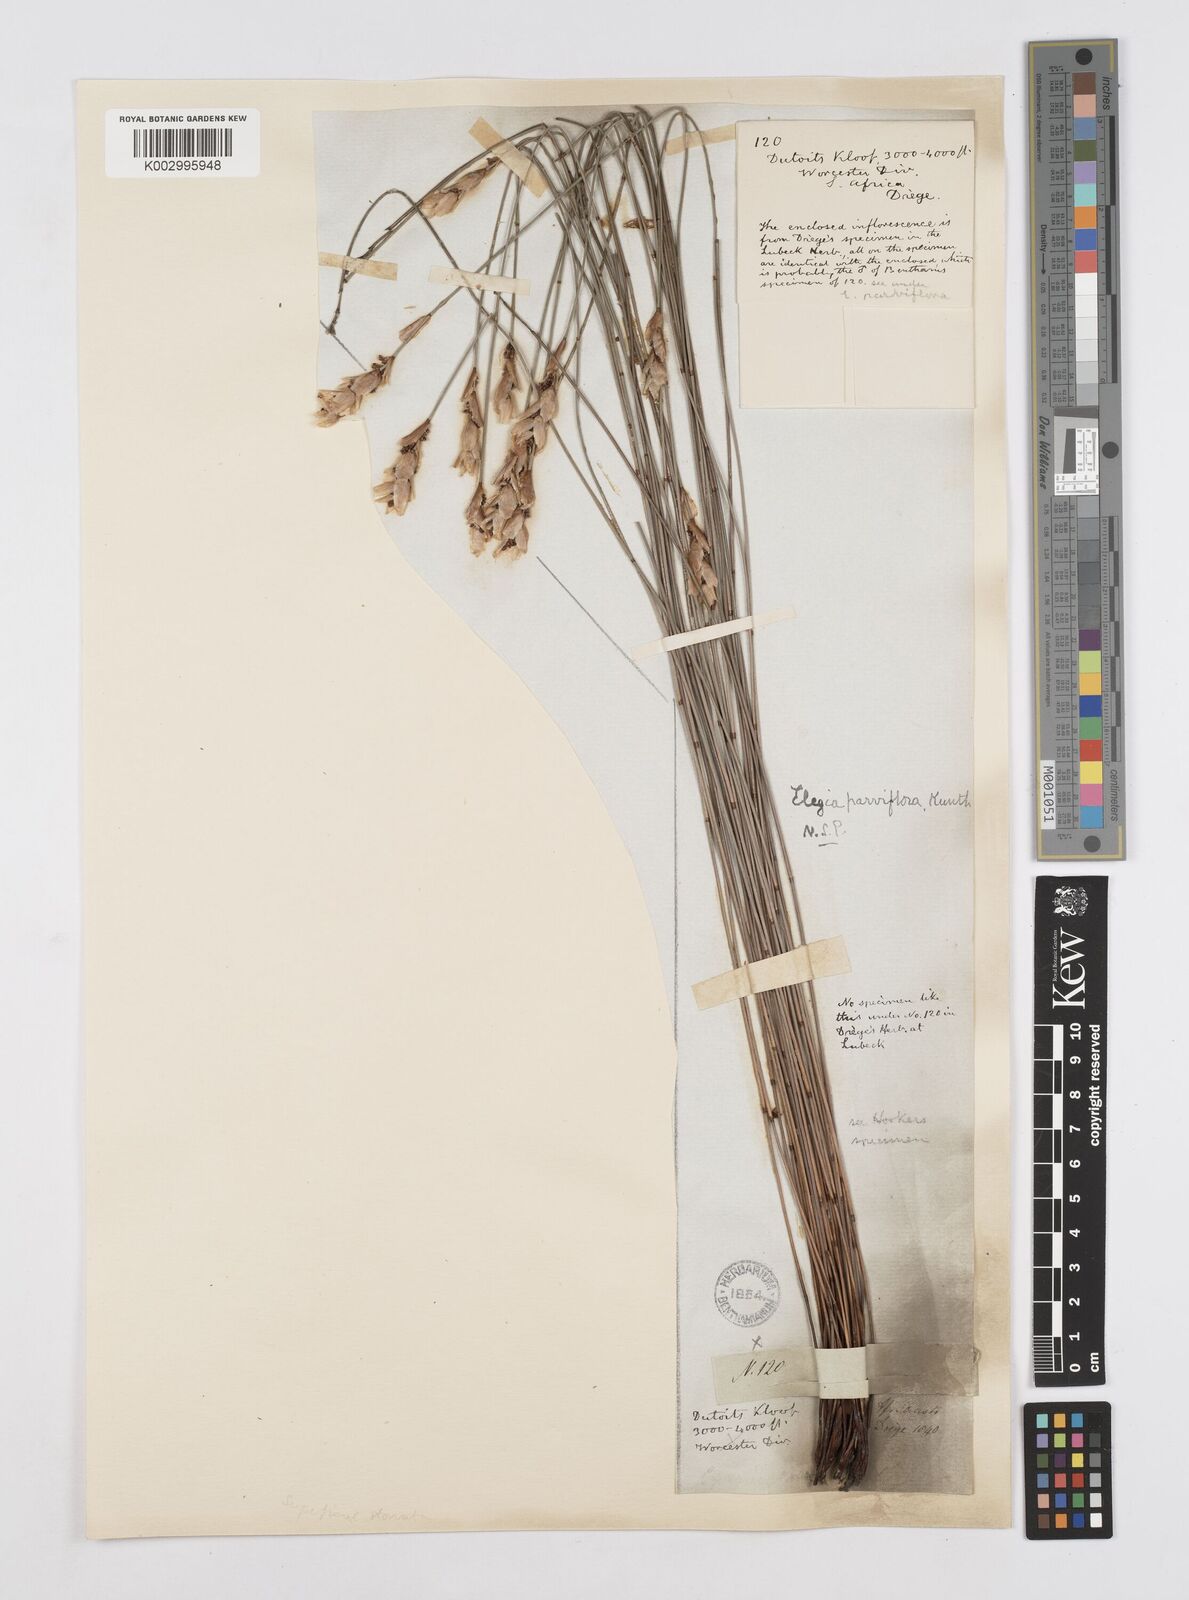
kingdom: Plantae
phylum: Tracheophyta
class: Liliopsida
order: Poales
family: Restionaceae
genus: Cannomois
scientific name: Cannomois parviflora
